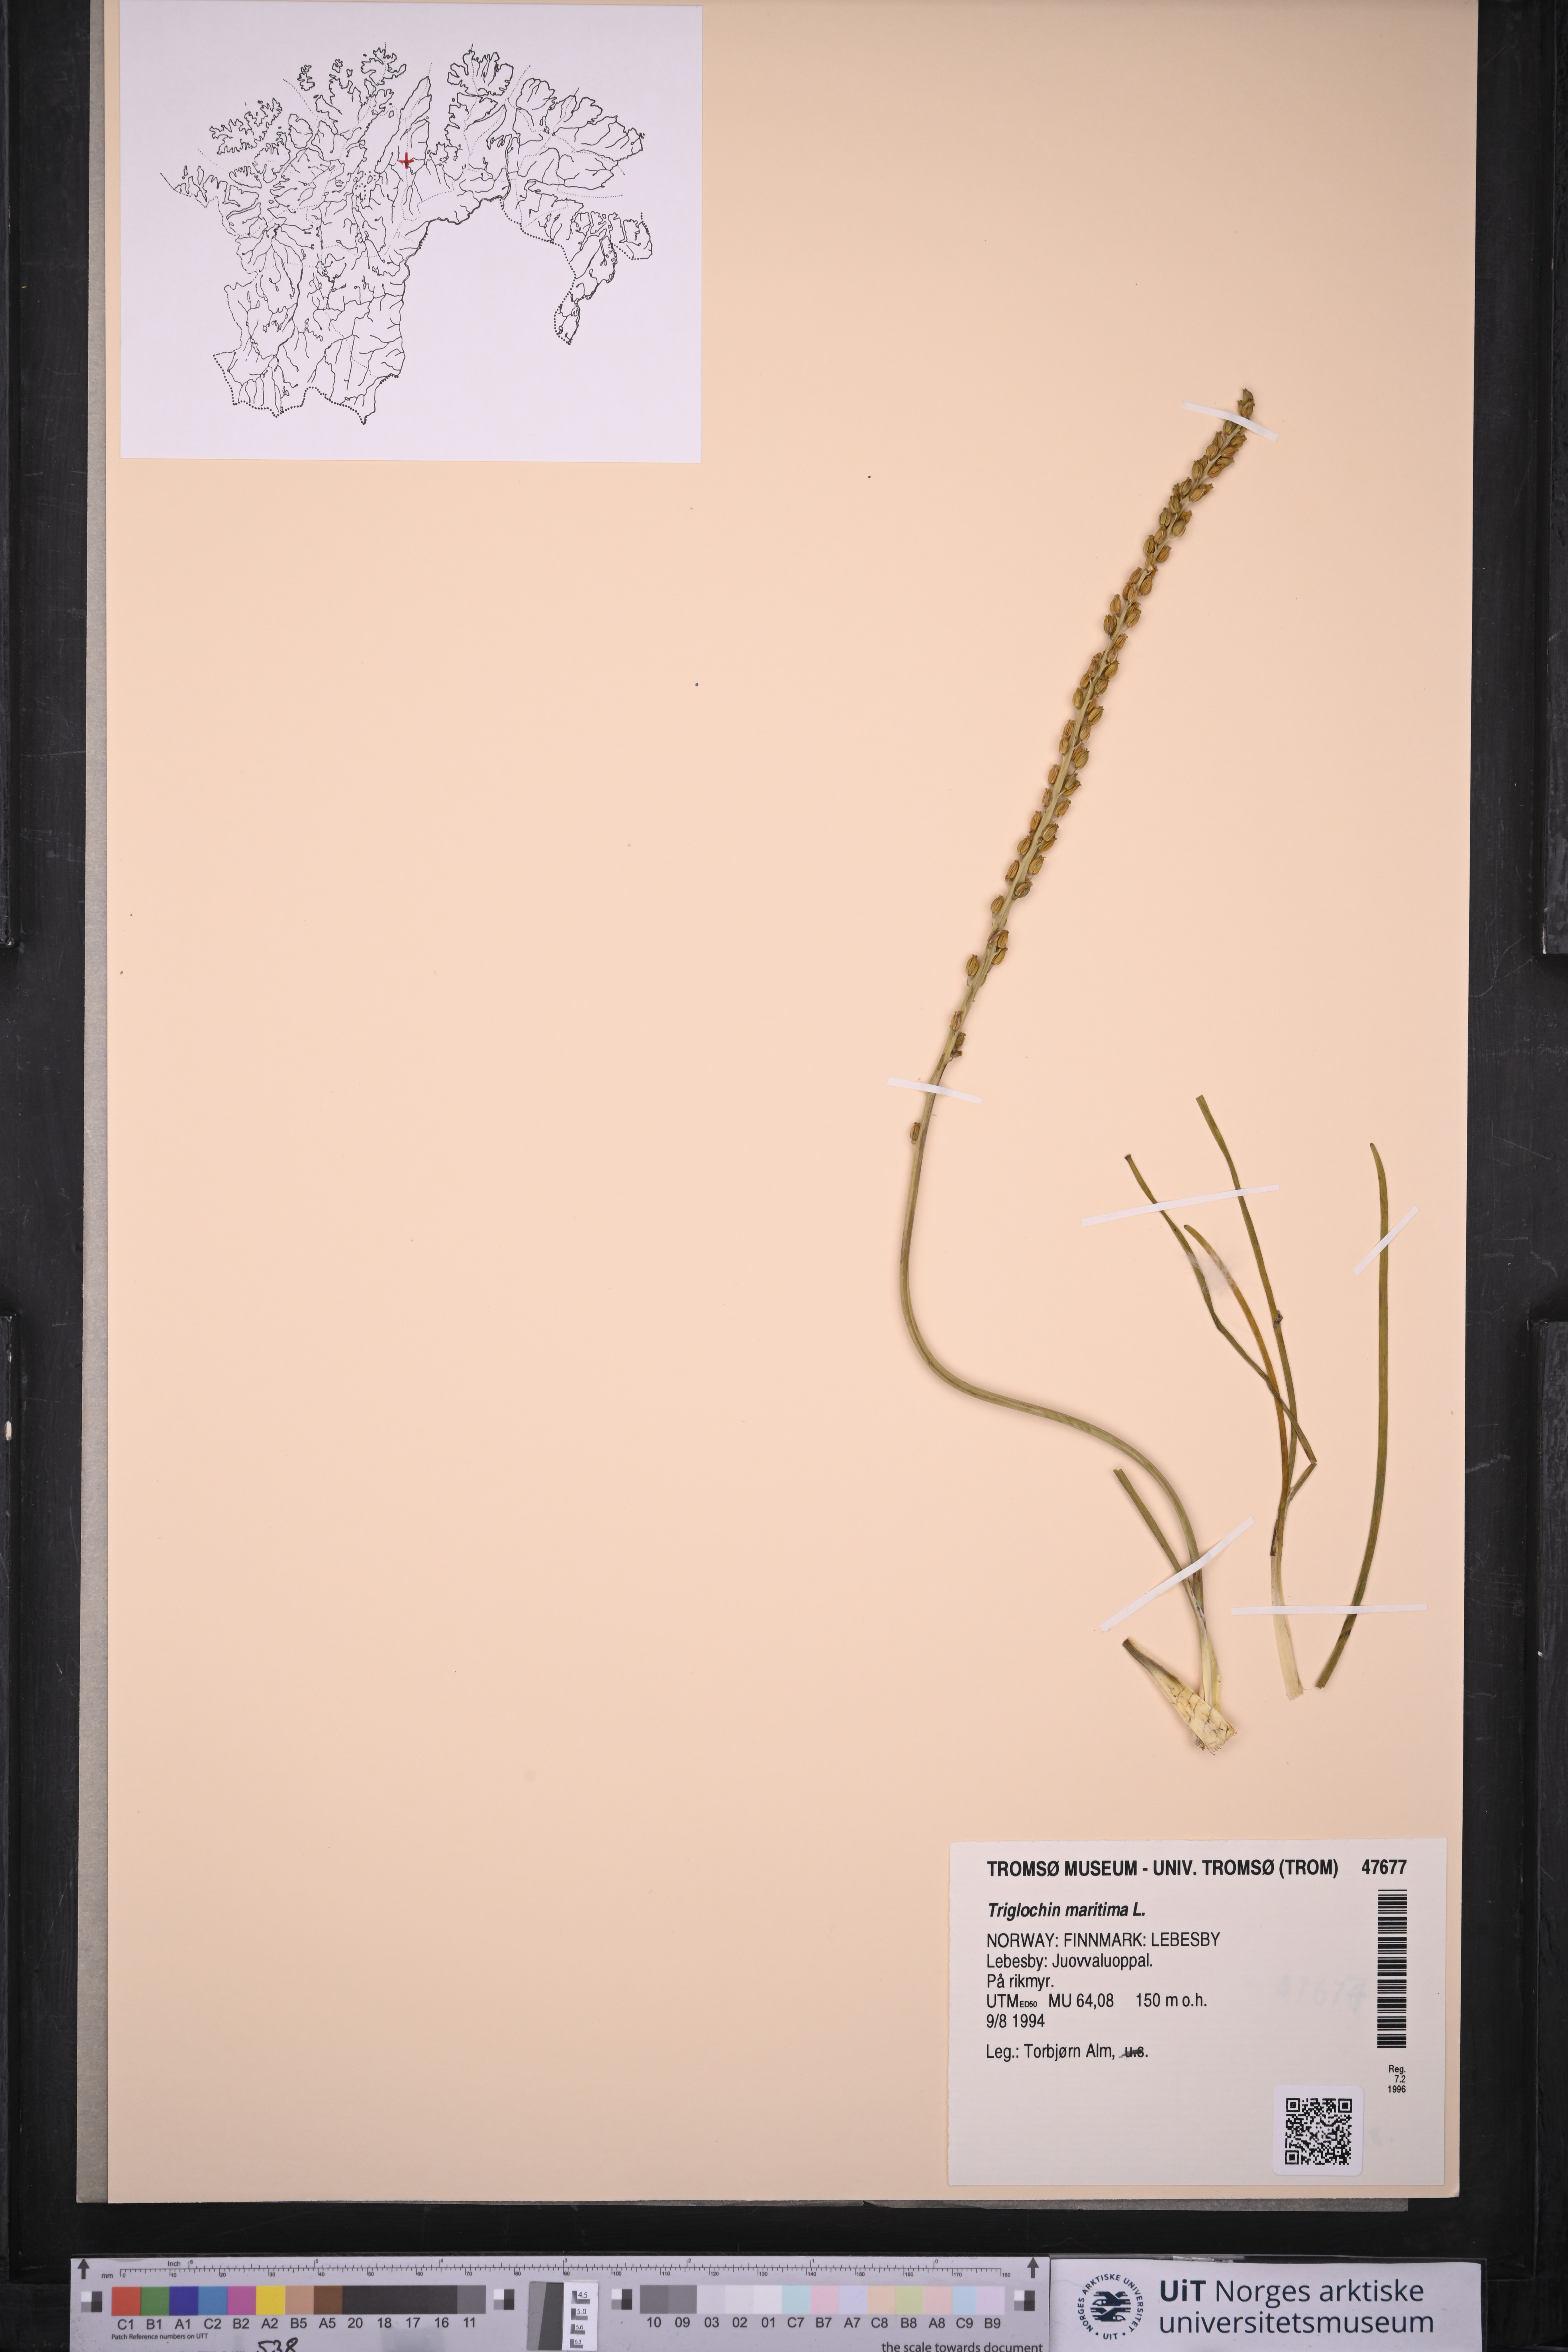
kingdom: Plantae
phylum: Tracheophyta
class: Liliopsida
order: Alismatales
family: Juncaginaceae
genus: Triglochin
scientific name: Triglochin maritima
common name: Sea arrowgrass
